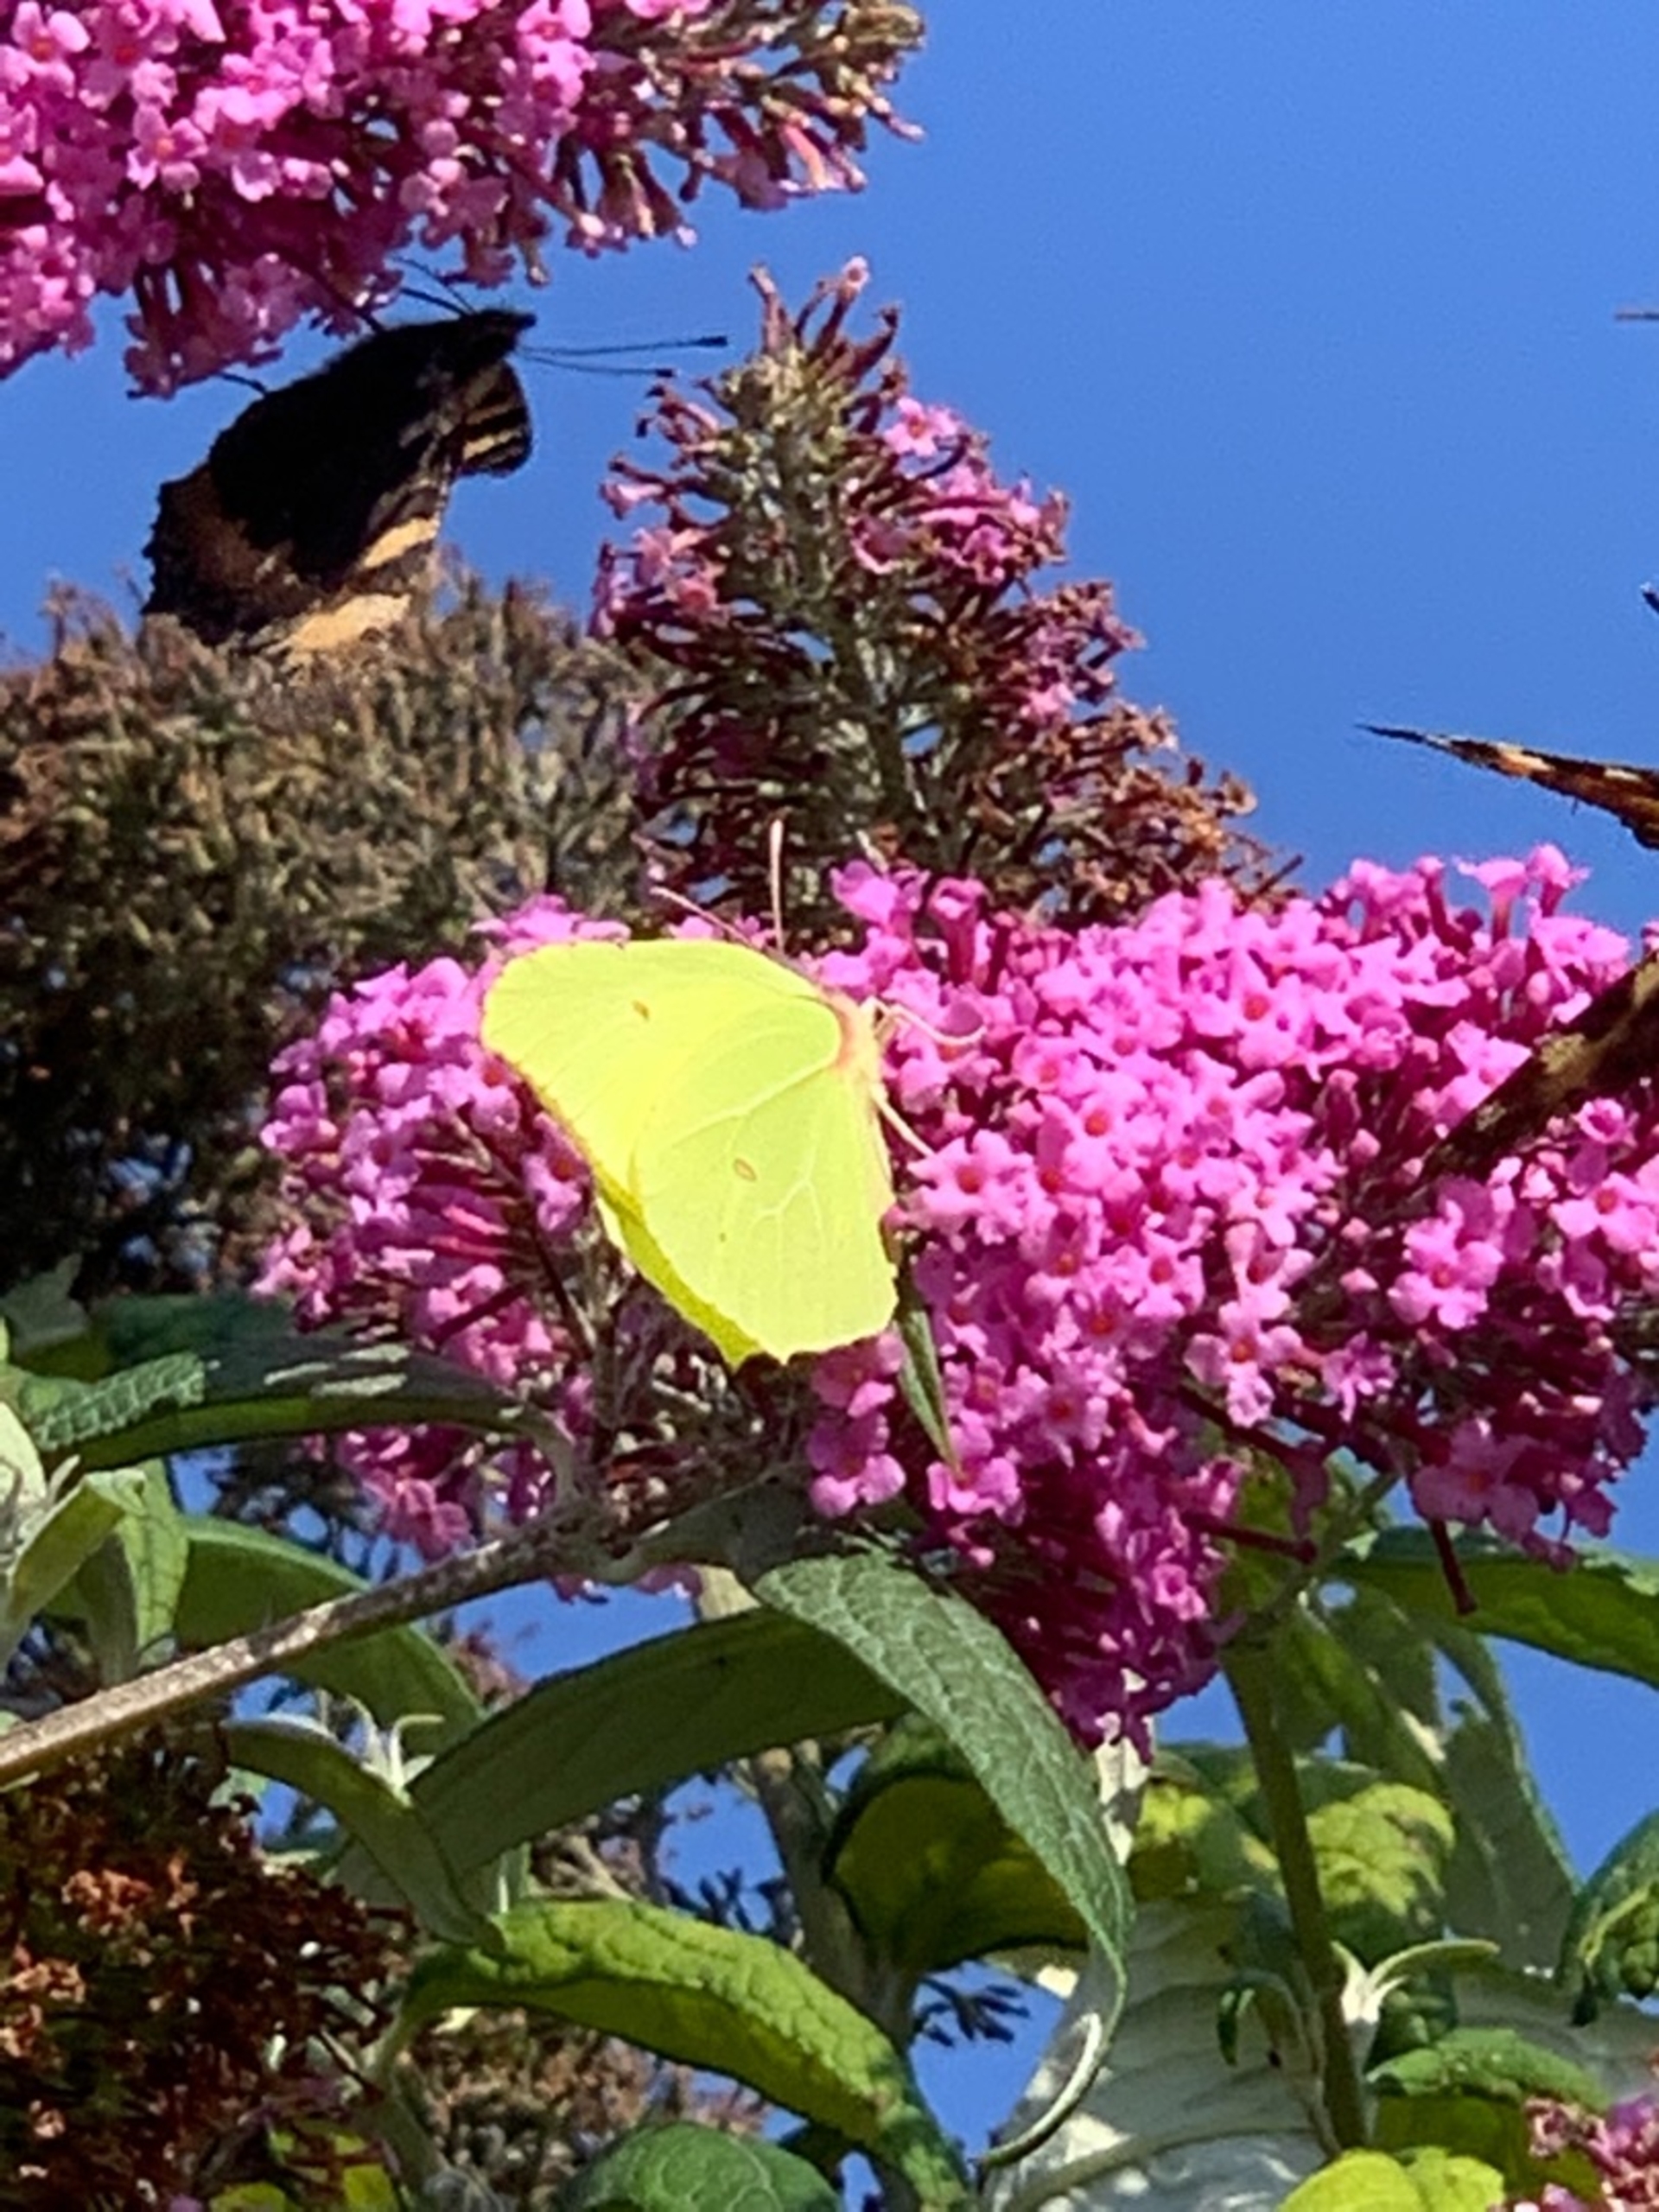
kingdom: Animalia
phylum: Arthropoda
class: Insecta
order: Lepidoptera
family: Pieridae
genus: Gonepteryx
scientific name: Gonepteryx rhamni
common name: Citronsommerfugl
